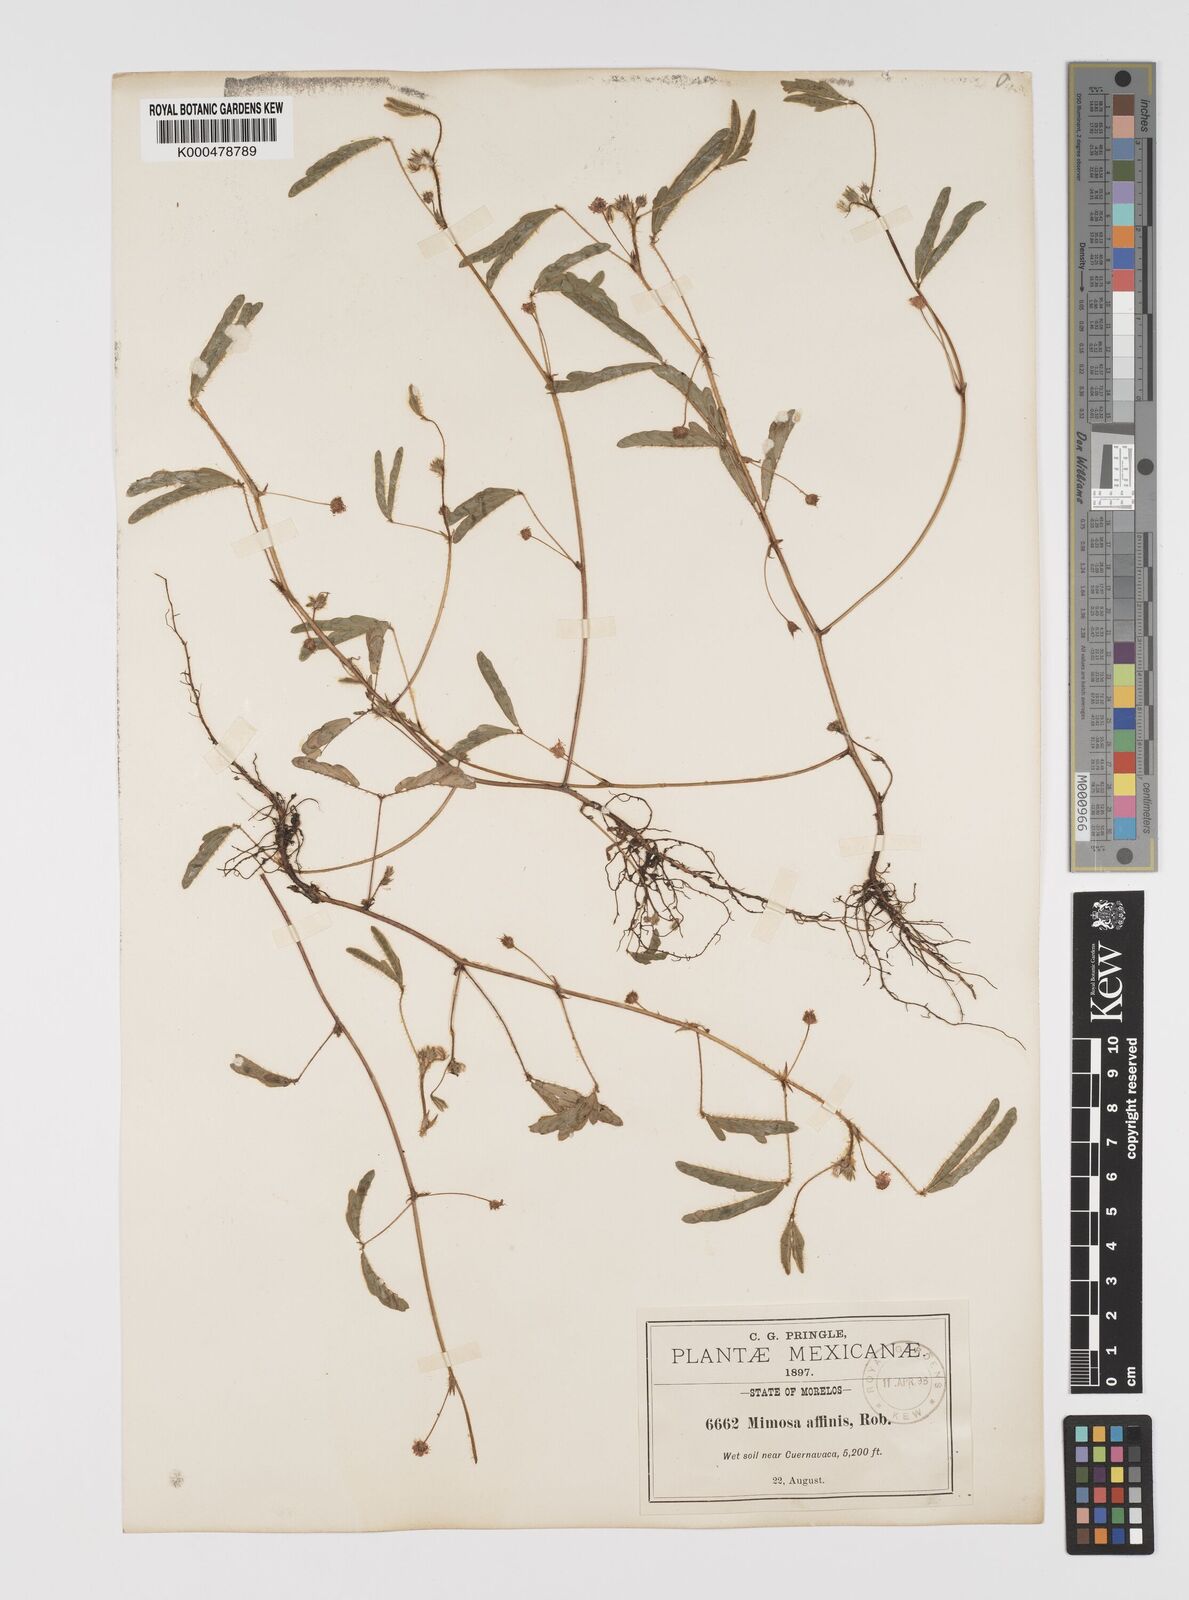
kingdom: Plantae
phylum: Tracheophyta
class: Magnoliopsida
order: Fabales
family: Fabaceae
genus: Mimosa
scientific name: Mimosa affinis
